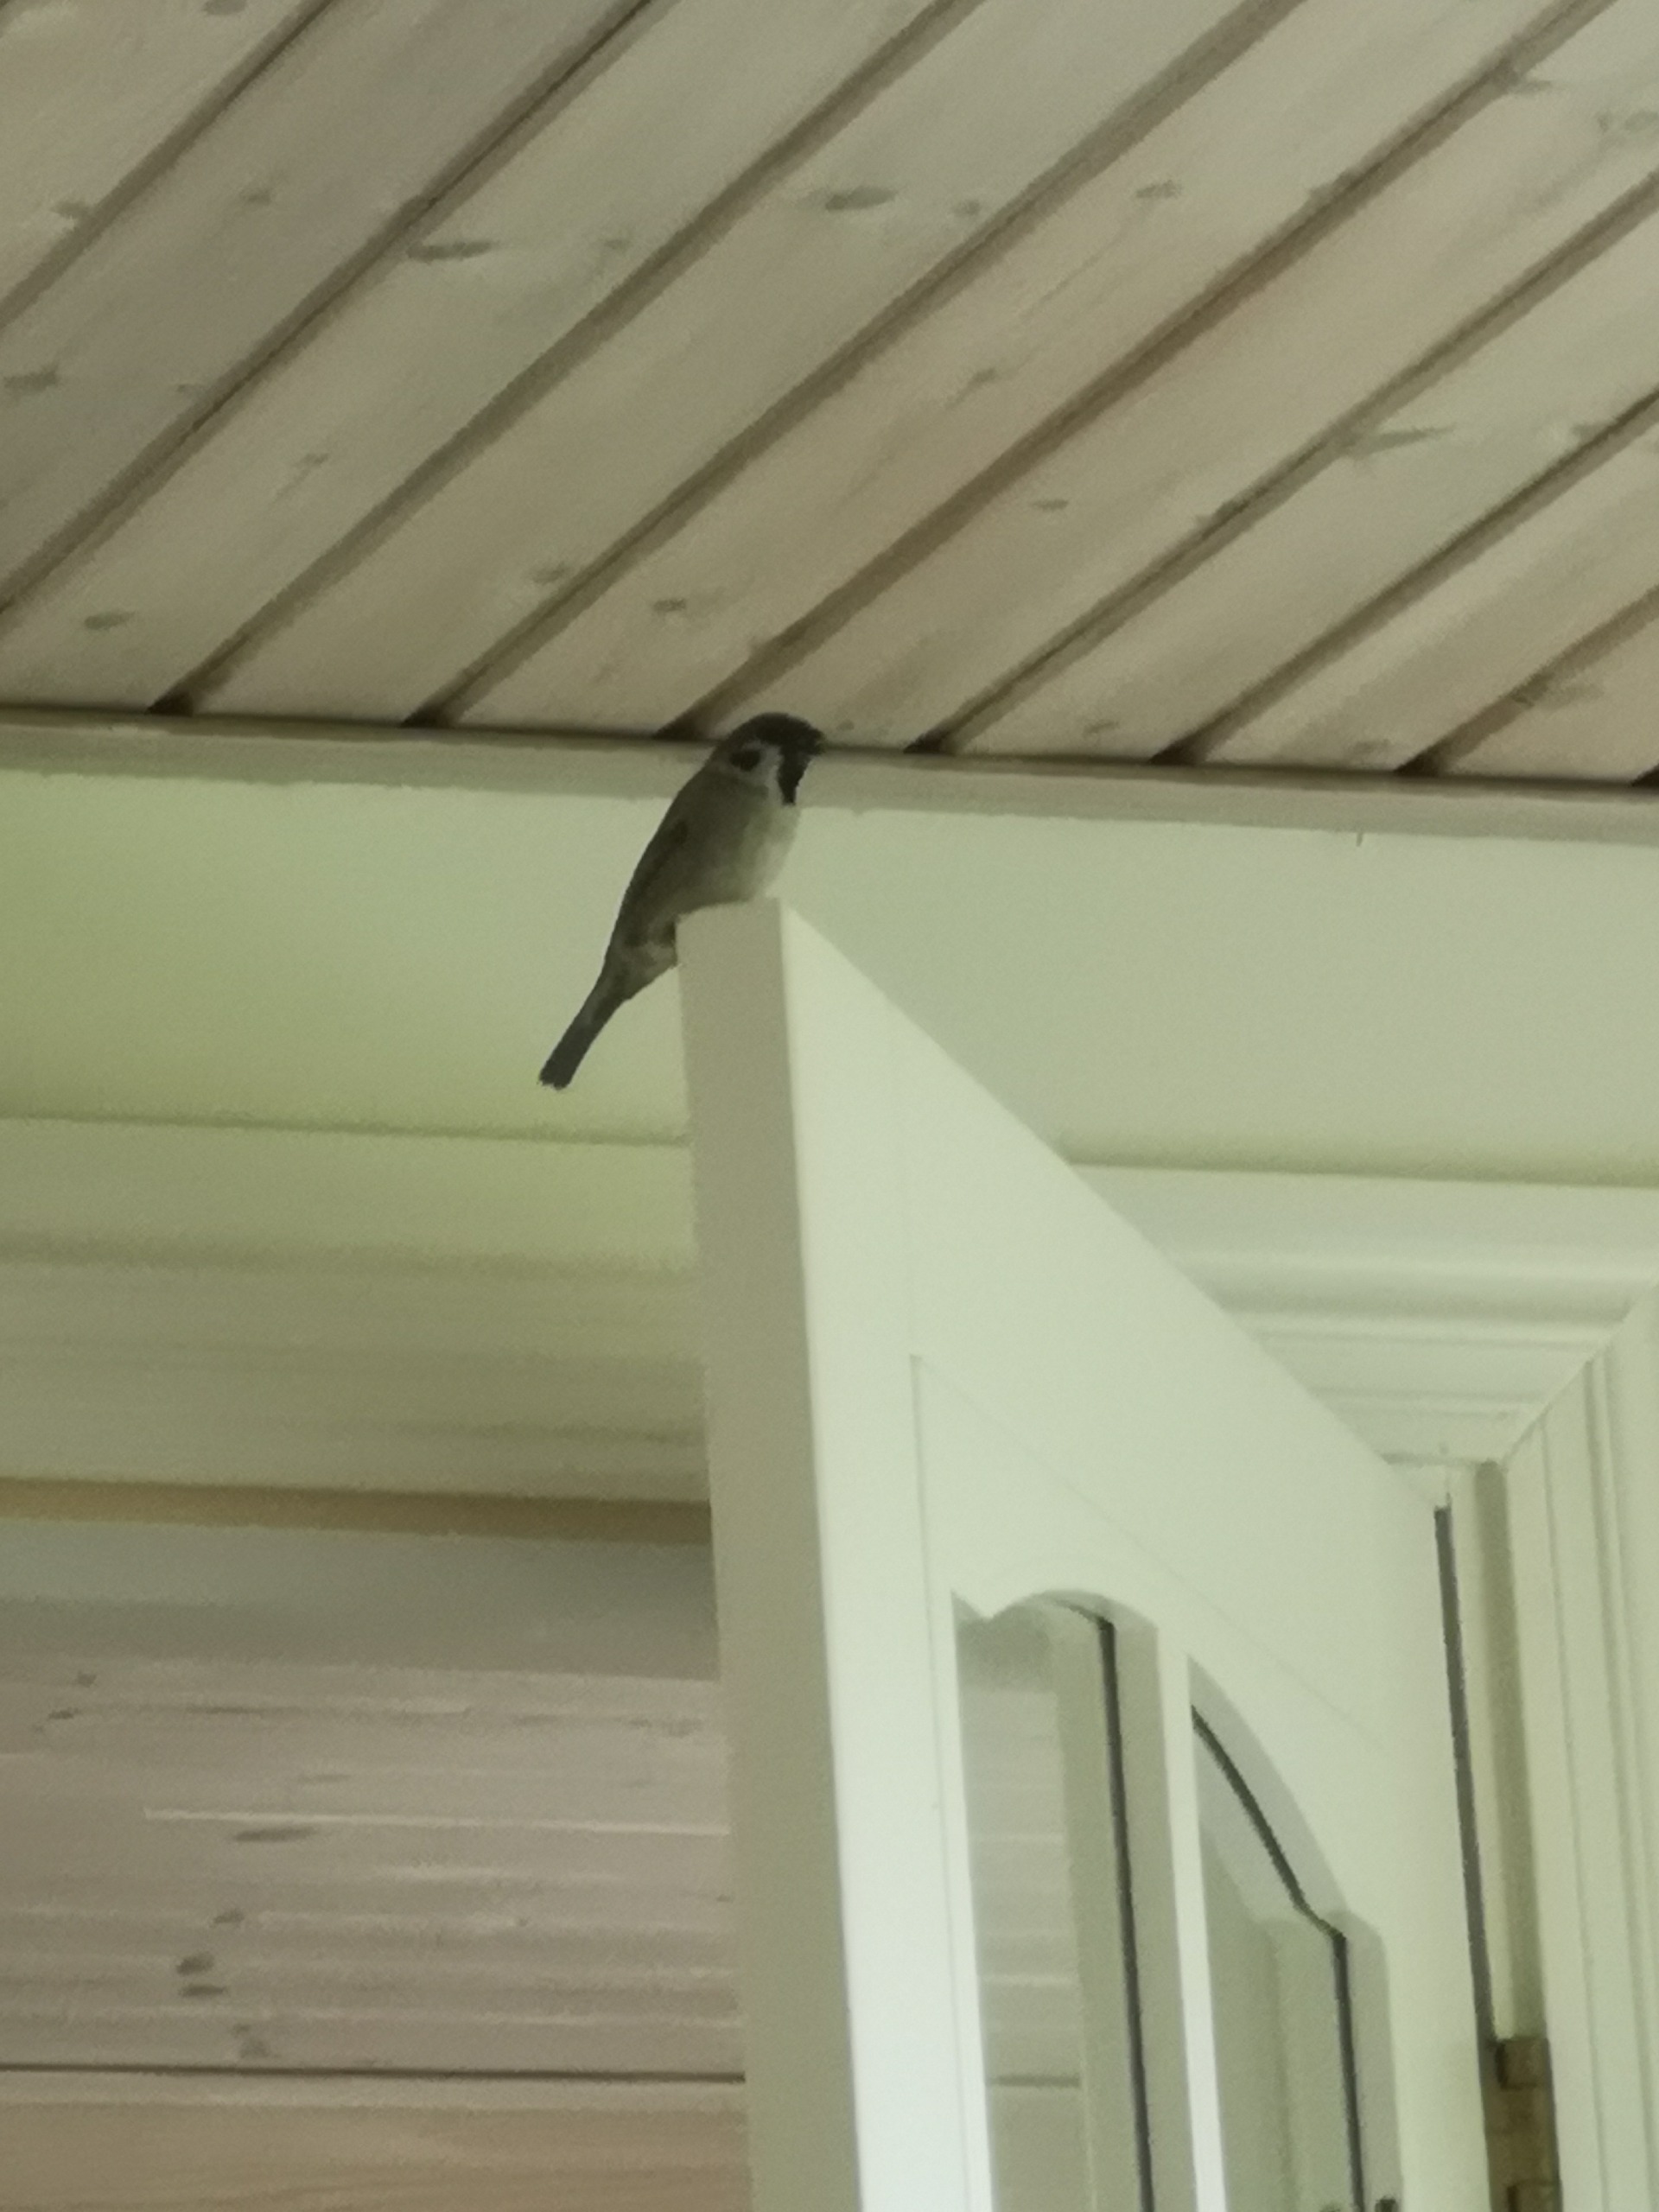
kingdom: Animalia
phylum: Chordata
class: Aves
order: Passeriformes
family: Passeridae
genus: Passer
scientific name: Passer montanus
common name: Skovspurv
